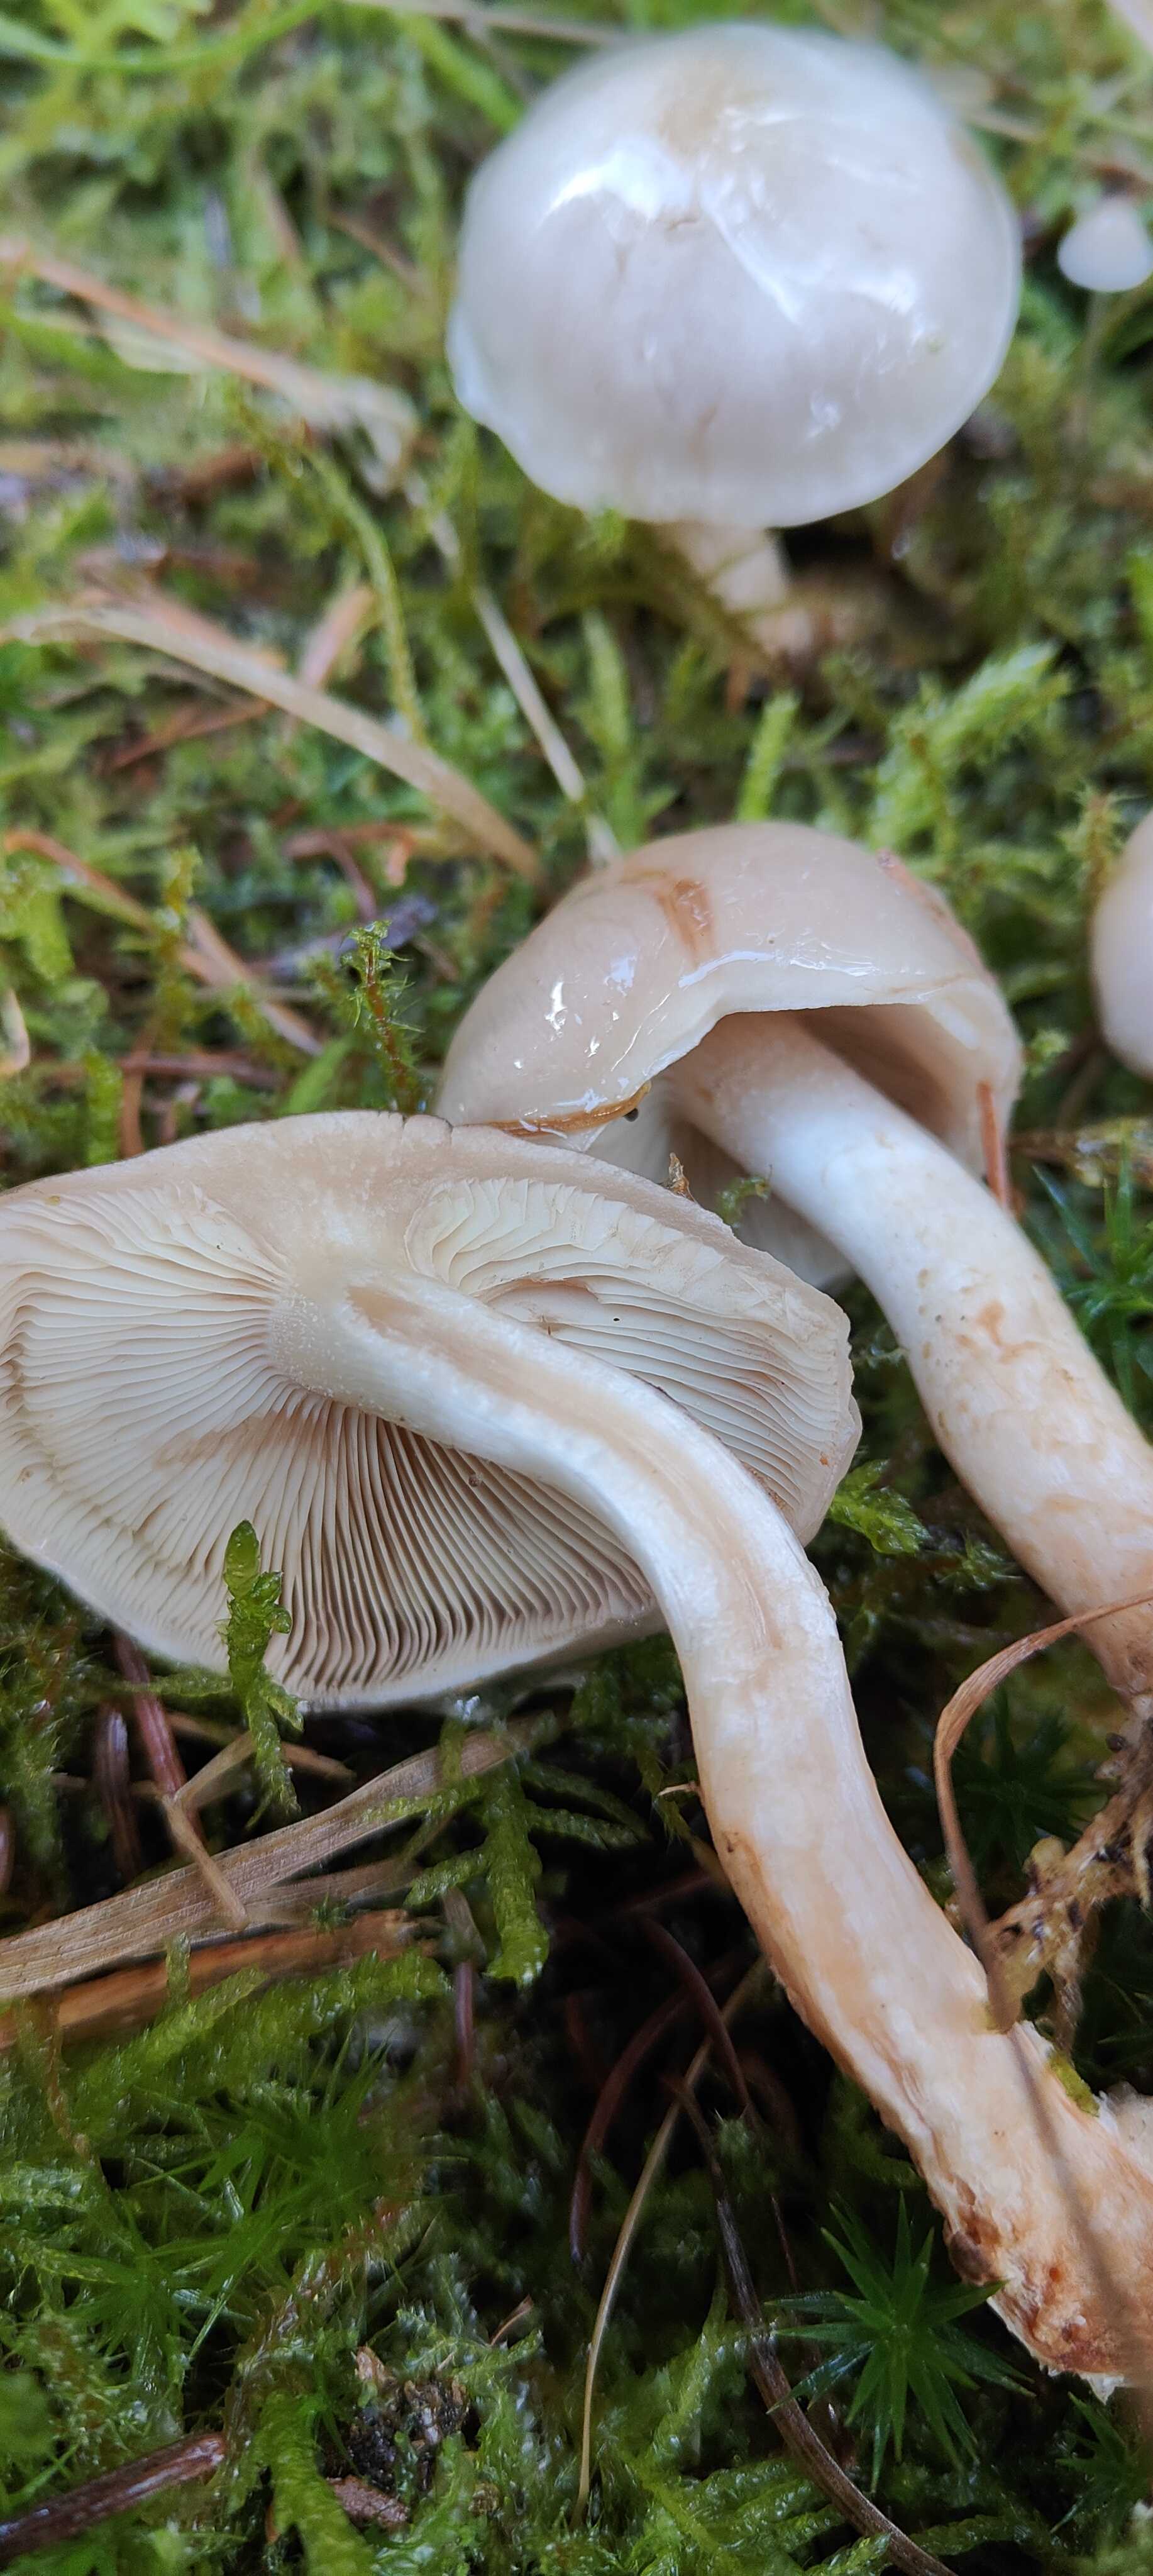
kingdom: Fungi
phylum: Basidiomycota
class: Agaricomycetes
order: Agaricales
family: Strophariaceae
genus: Pholiota
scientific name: Pholiota lenta
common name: løv-skælhat
